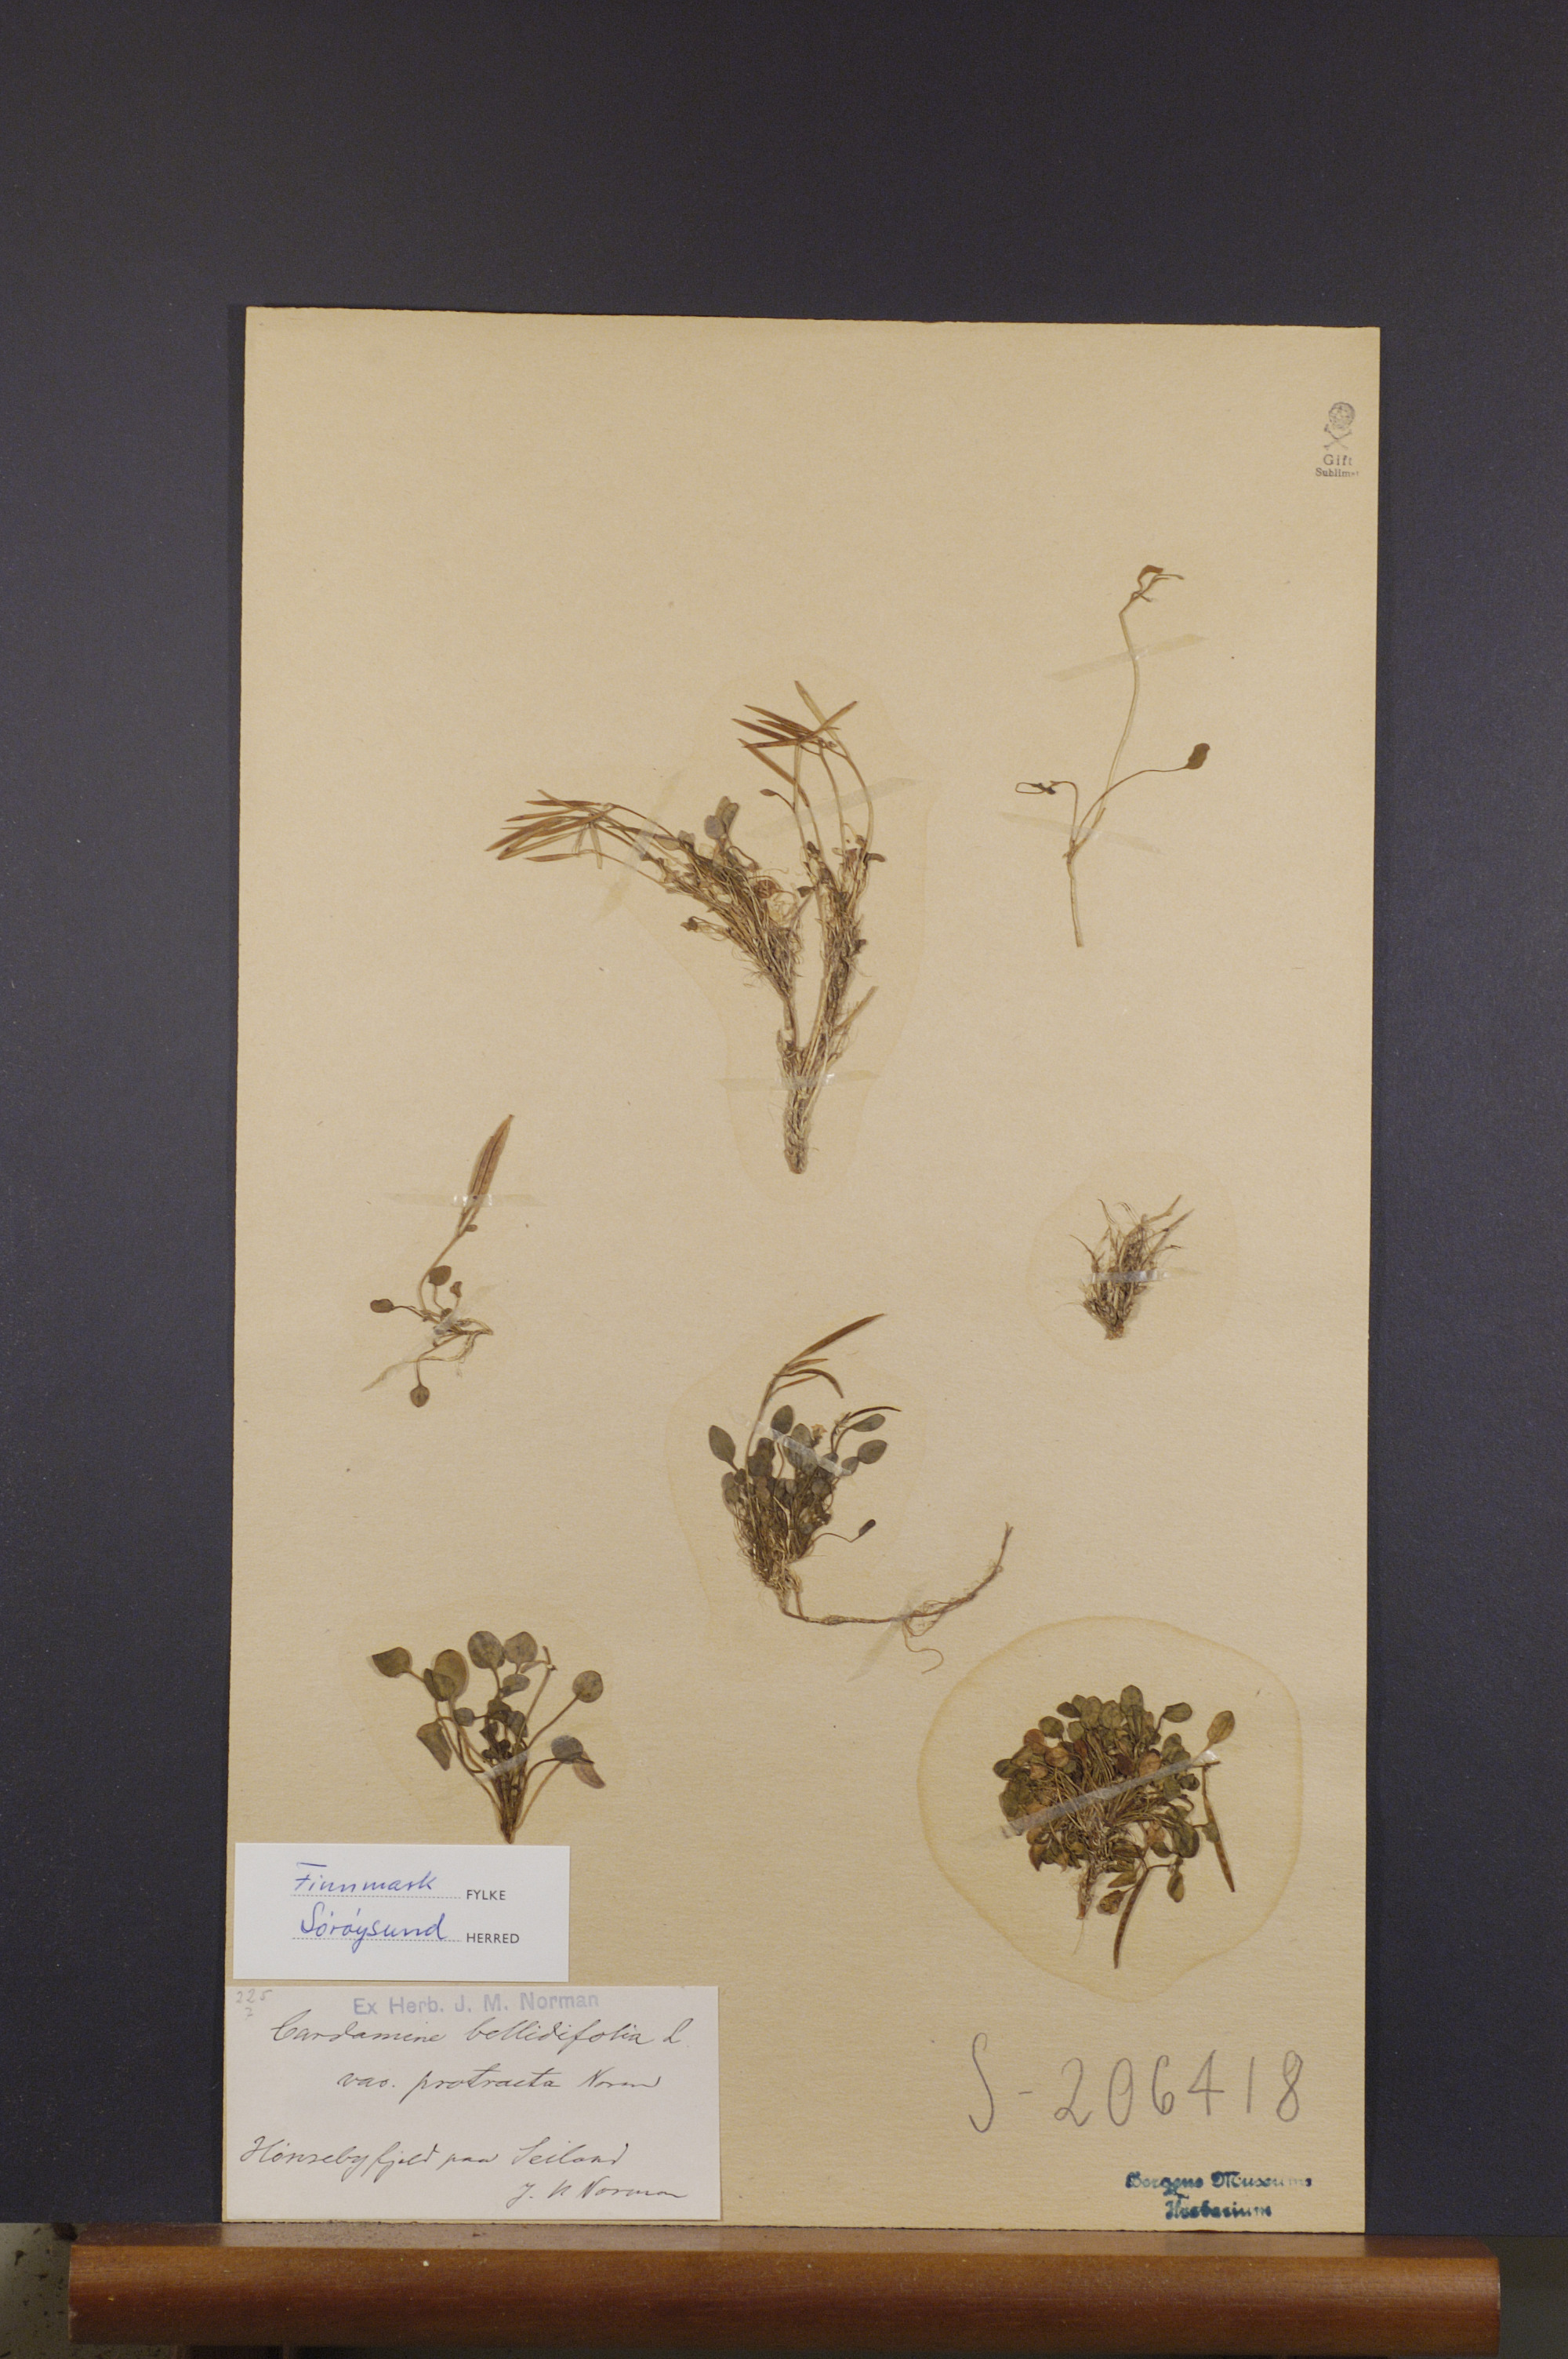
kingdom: Plantae
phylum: Tracheophyta
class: Magnoliopsida
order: Brassicales
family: Brassicaceae
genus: Cardamine
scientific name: Cardamine bellidifolia
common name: Alpine bittercress
